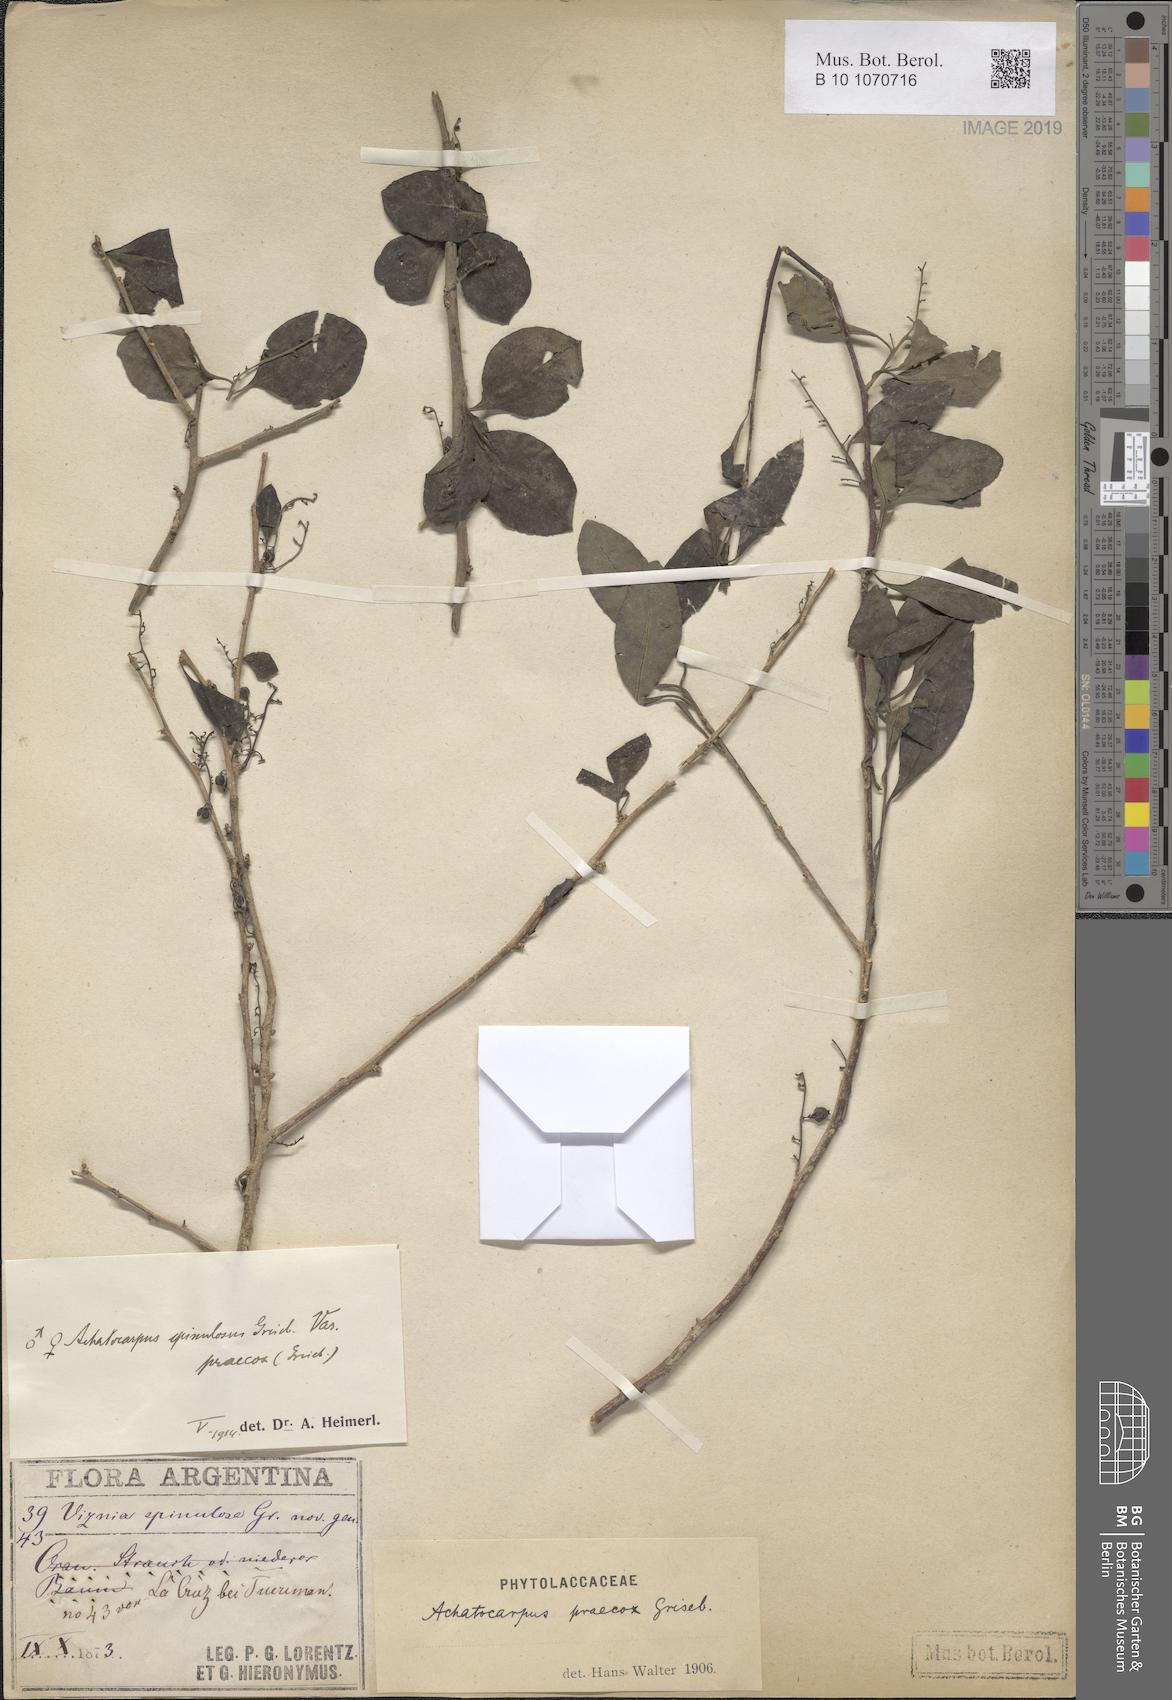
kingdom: Plantae
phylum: Tracheophyta
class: Magnoliopsida
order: Caryophyllales
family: Achatocarpaceae
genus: Achatocarpus
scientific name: Achatocarpus praecox
